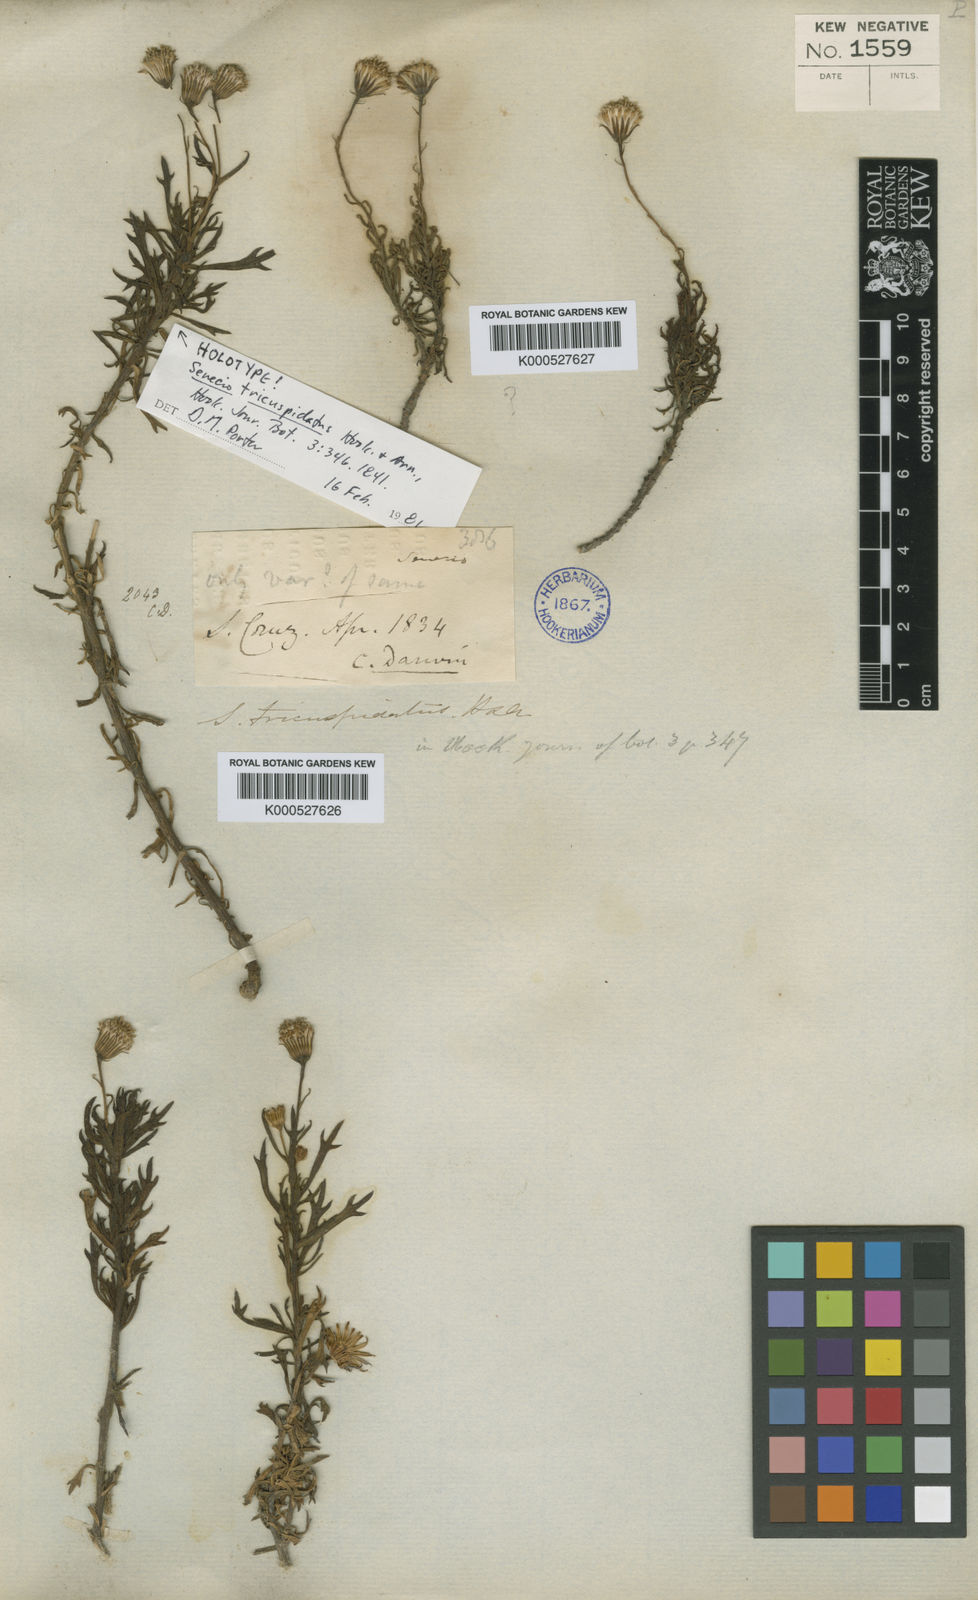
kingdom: Plantae
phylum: Tracheophyta
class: Magnoliopsida
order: Asterales
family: Asteraceae
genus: Senecio
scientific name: Senecio tricuspidatus
